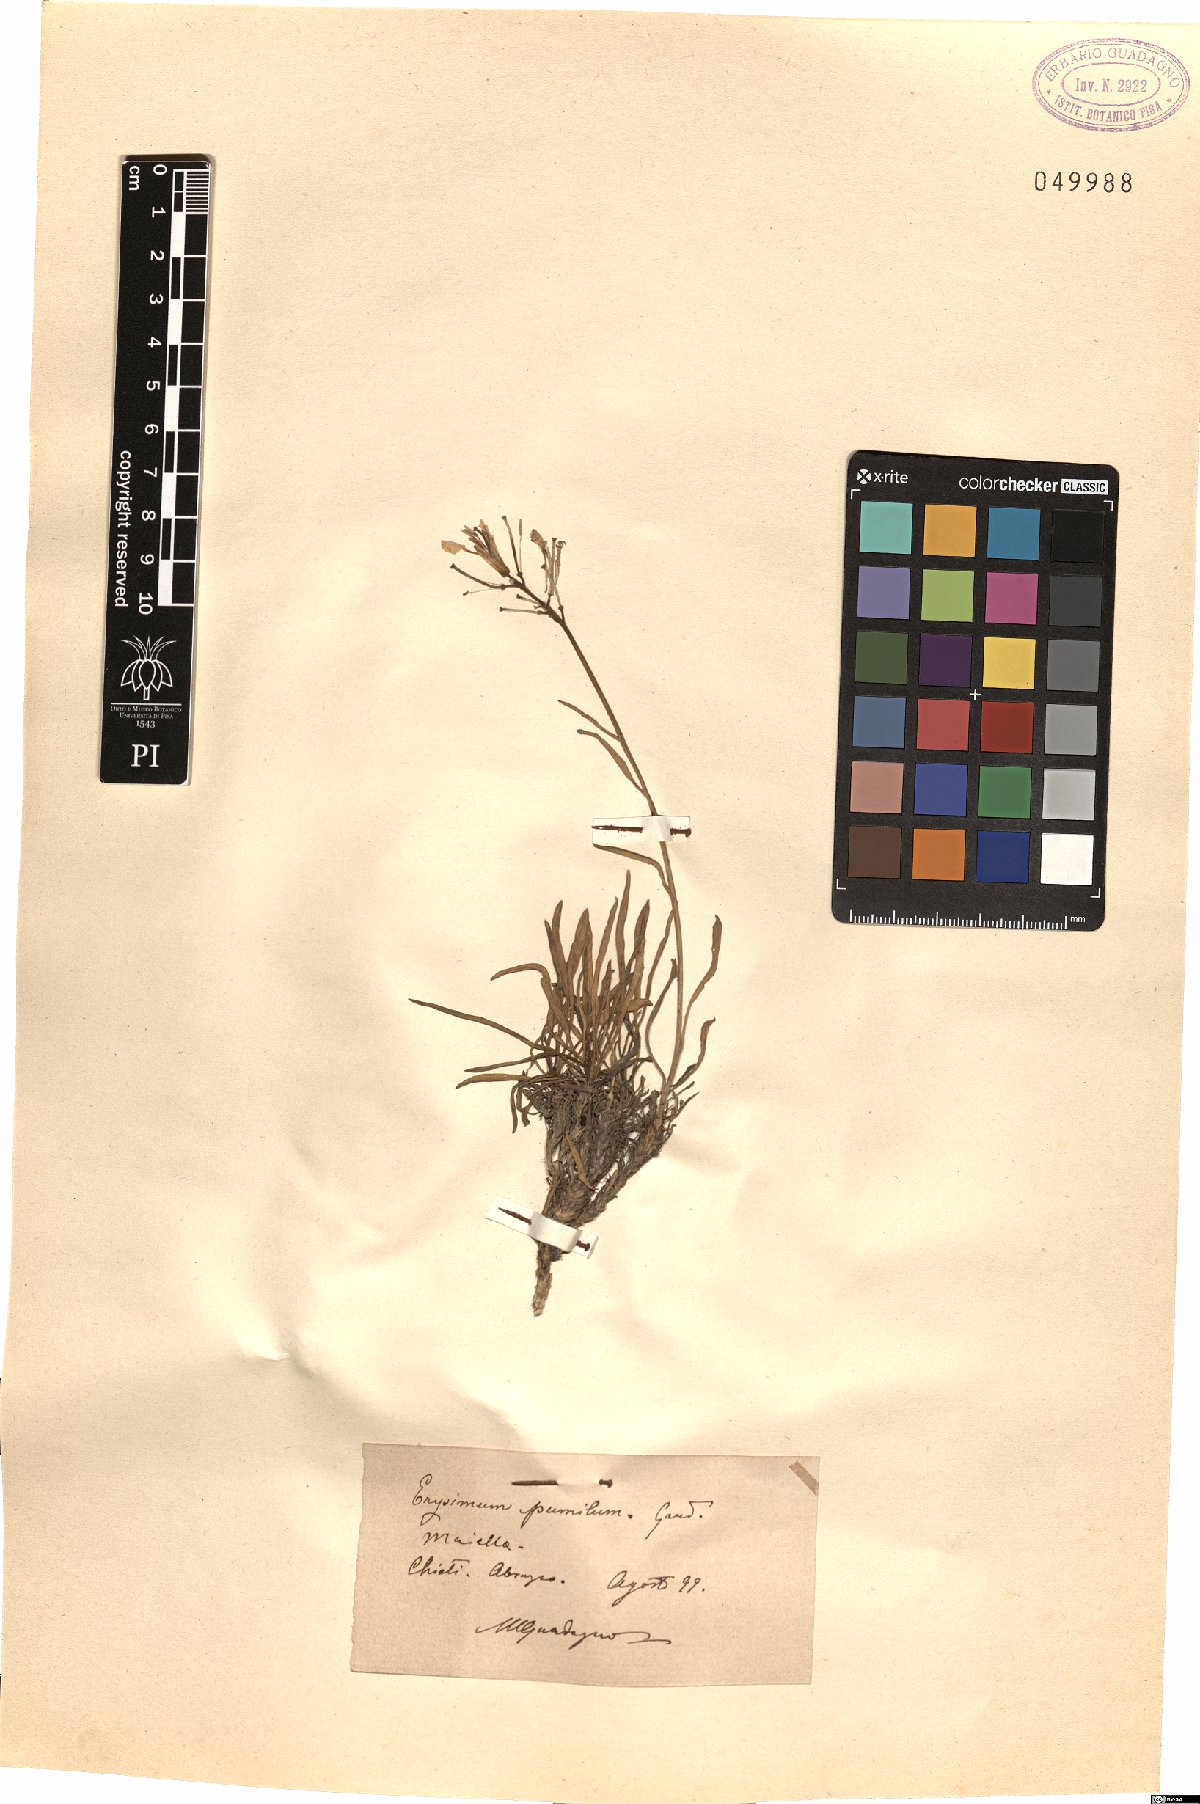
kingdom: Plantae
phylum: Tracheophyta
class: Magnoliopsida
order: Brassicales
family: Brassicaceae
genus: Erysimum
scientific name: Erysimum jugicolum
